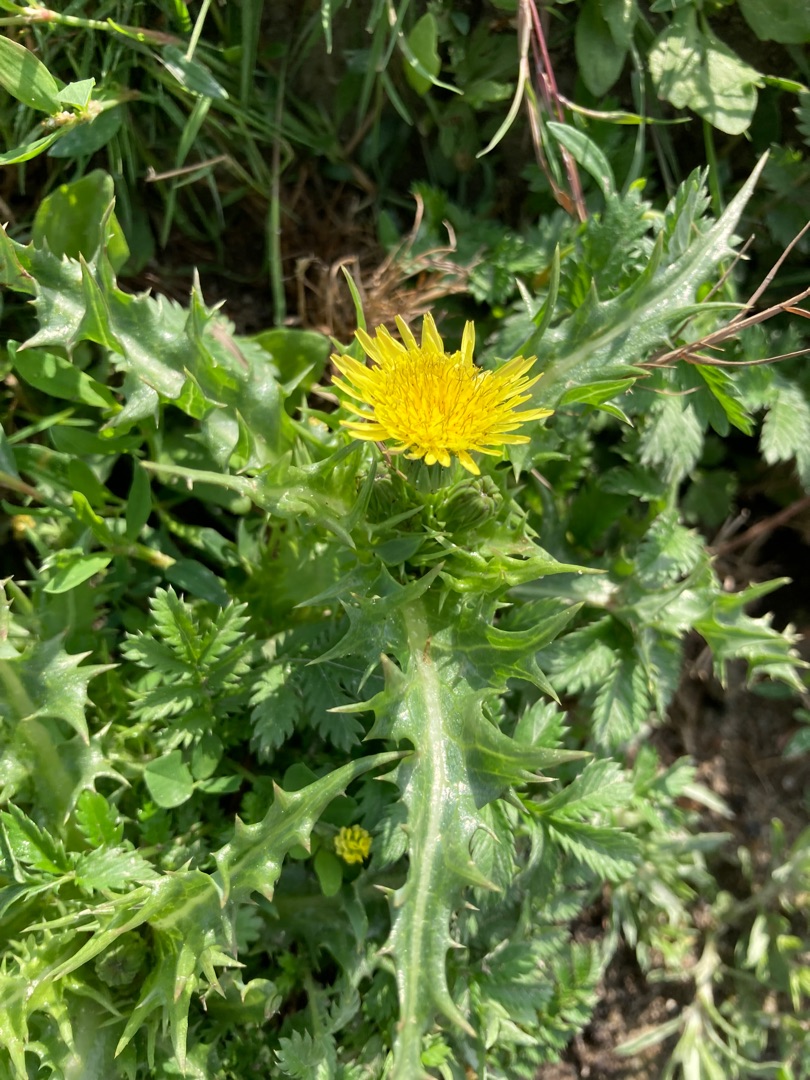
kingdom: Plantae
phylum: Tracheophyta
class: Magnoliopsida
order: Asterales
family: Asteraceae
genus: Sonchus
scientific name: Sonchus asper
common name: Ru svinemælk
